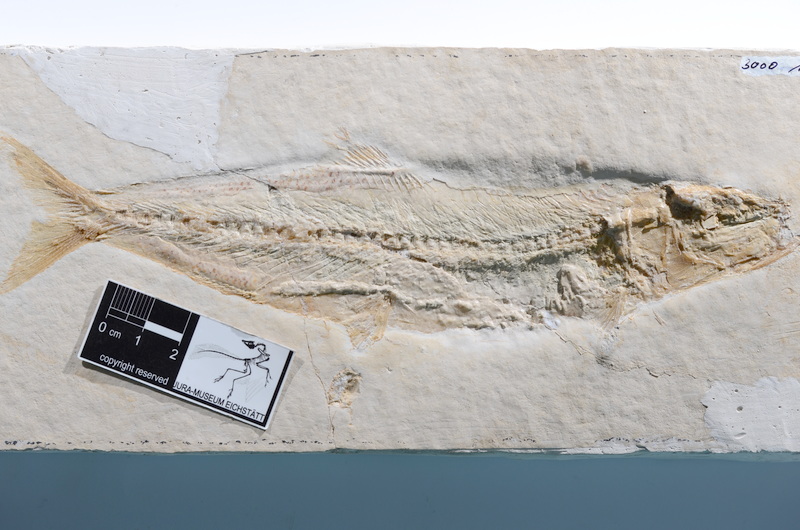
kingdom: Animalia
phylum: Chordata
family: Ascalaboidae
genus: Tharsis
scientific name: Tharsis dubius
